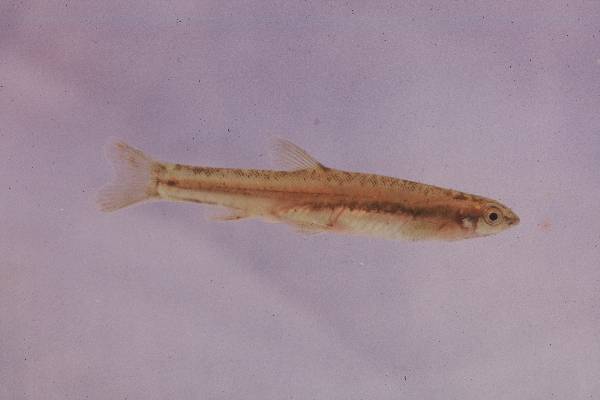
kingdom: Animalia
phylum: Chordata
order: Gonorynchiformes
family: Kneriidae
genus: Kneria
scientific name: Kneria auriculata
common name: Airbreathing shellear
